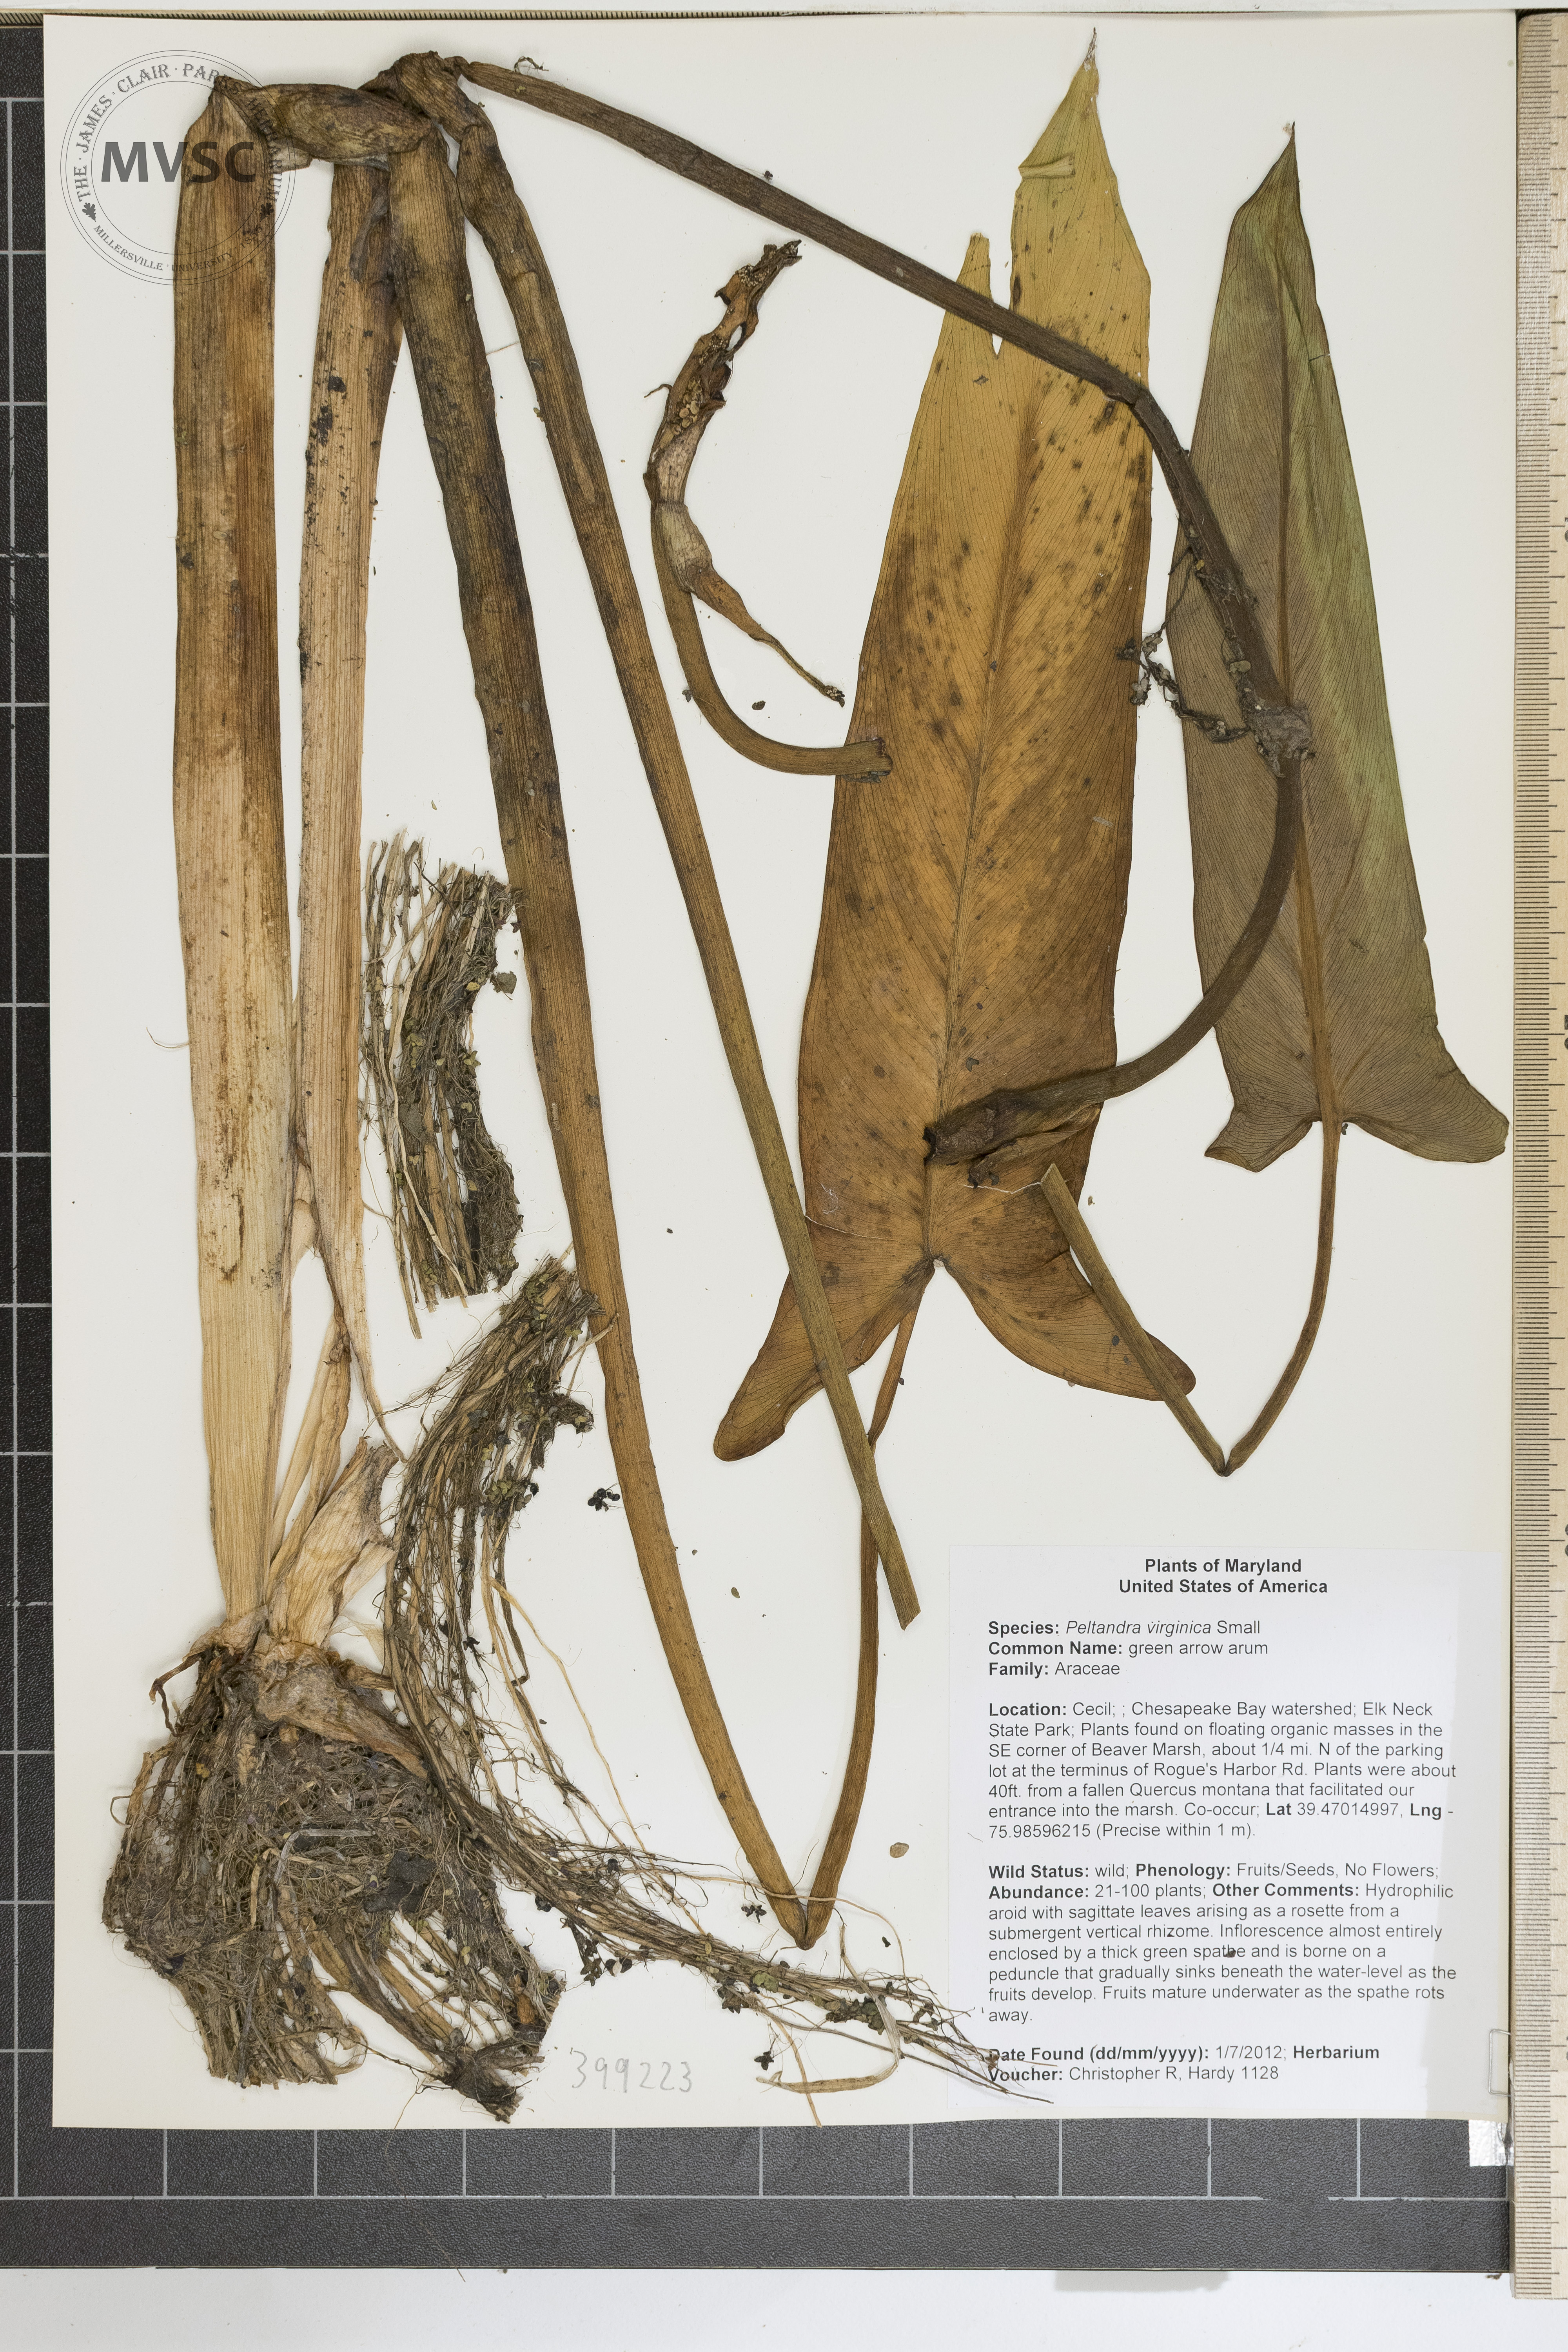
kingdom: Plantae
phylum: Tracheophyta
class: Liliopsida
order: Alismatales
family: Araceae
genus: Peltandra
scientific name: Peltandra virginica
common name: green arrow arum
